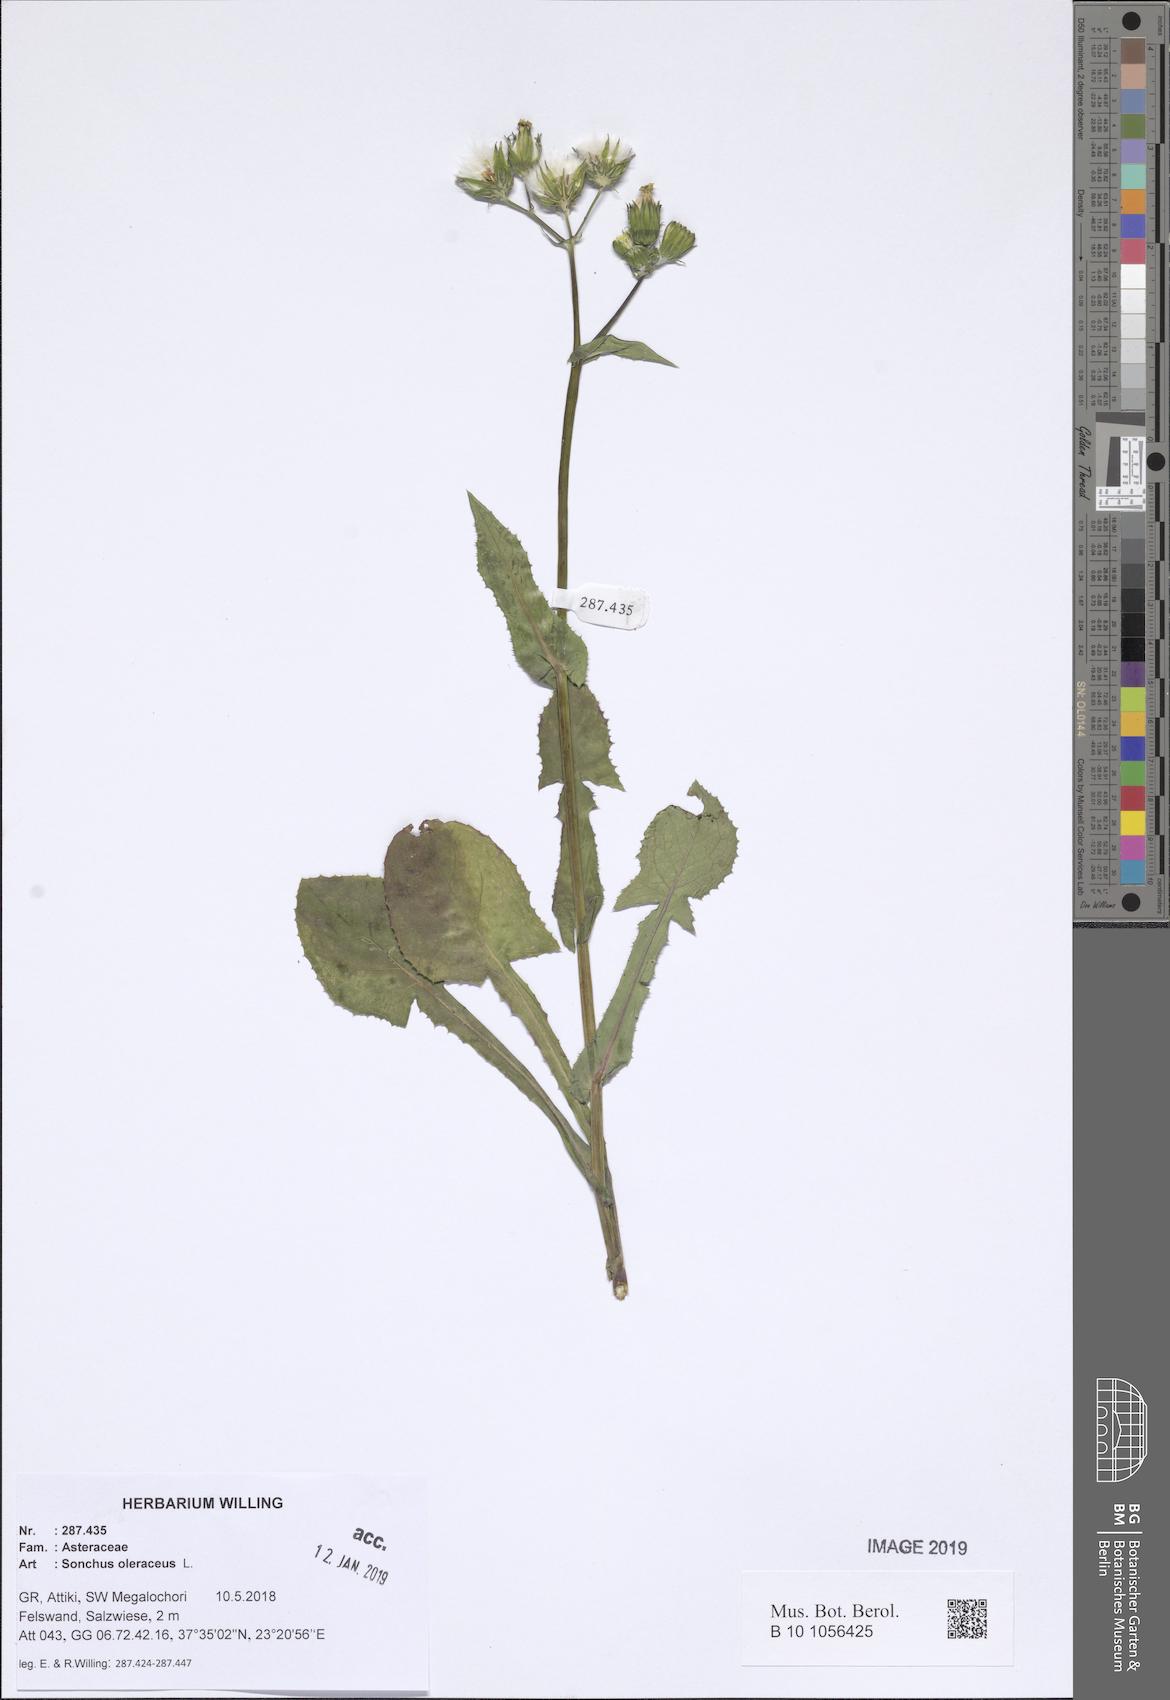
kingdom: Plantae
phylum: Tracheophyta
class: Magnoliopsida
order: Asterales
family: Asteraceae
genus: Sonchus
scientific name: Sonchus oleraceus
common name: Common sowthistle
